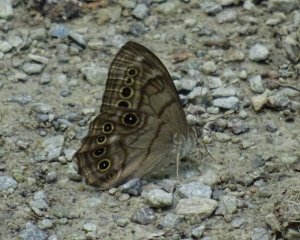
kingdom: Animalia
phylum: Arthropoda
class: Insecta
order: Lepidoptera
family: Nymphalidae
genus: Lethe
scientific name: Lethe anthedon
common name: Northern Pearly-Eye
